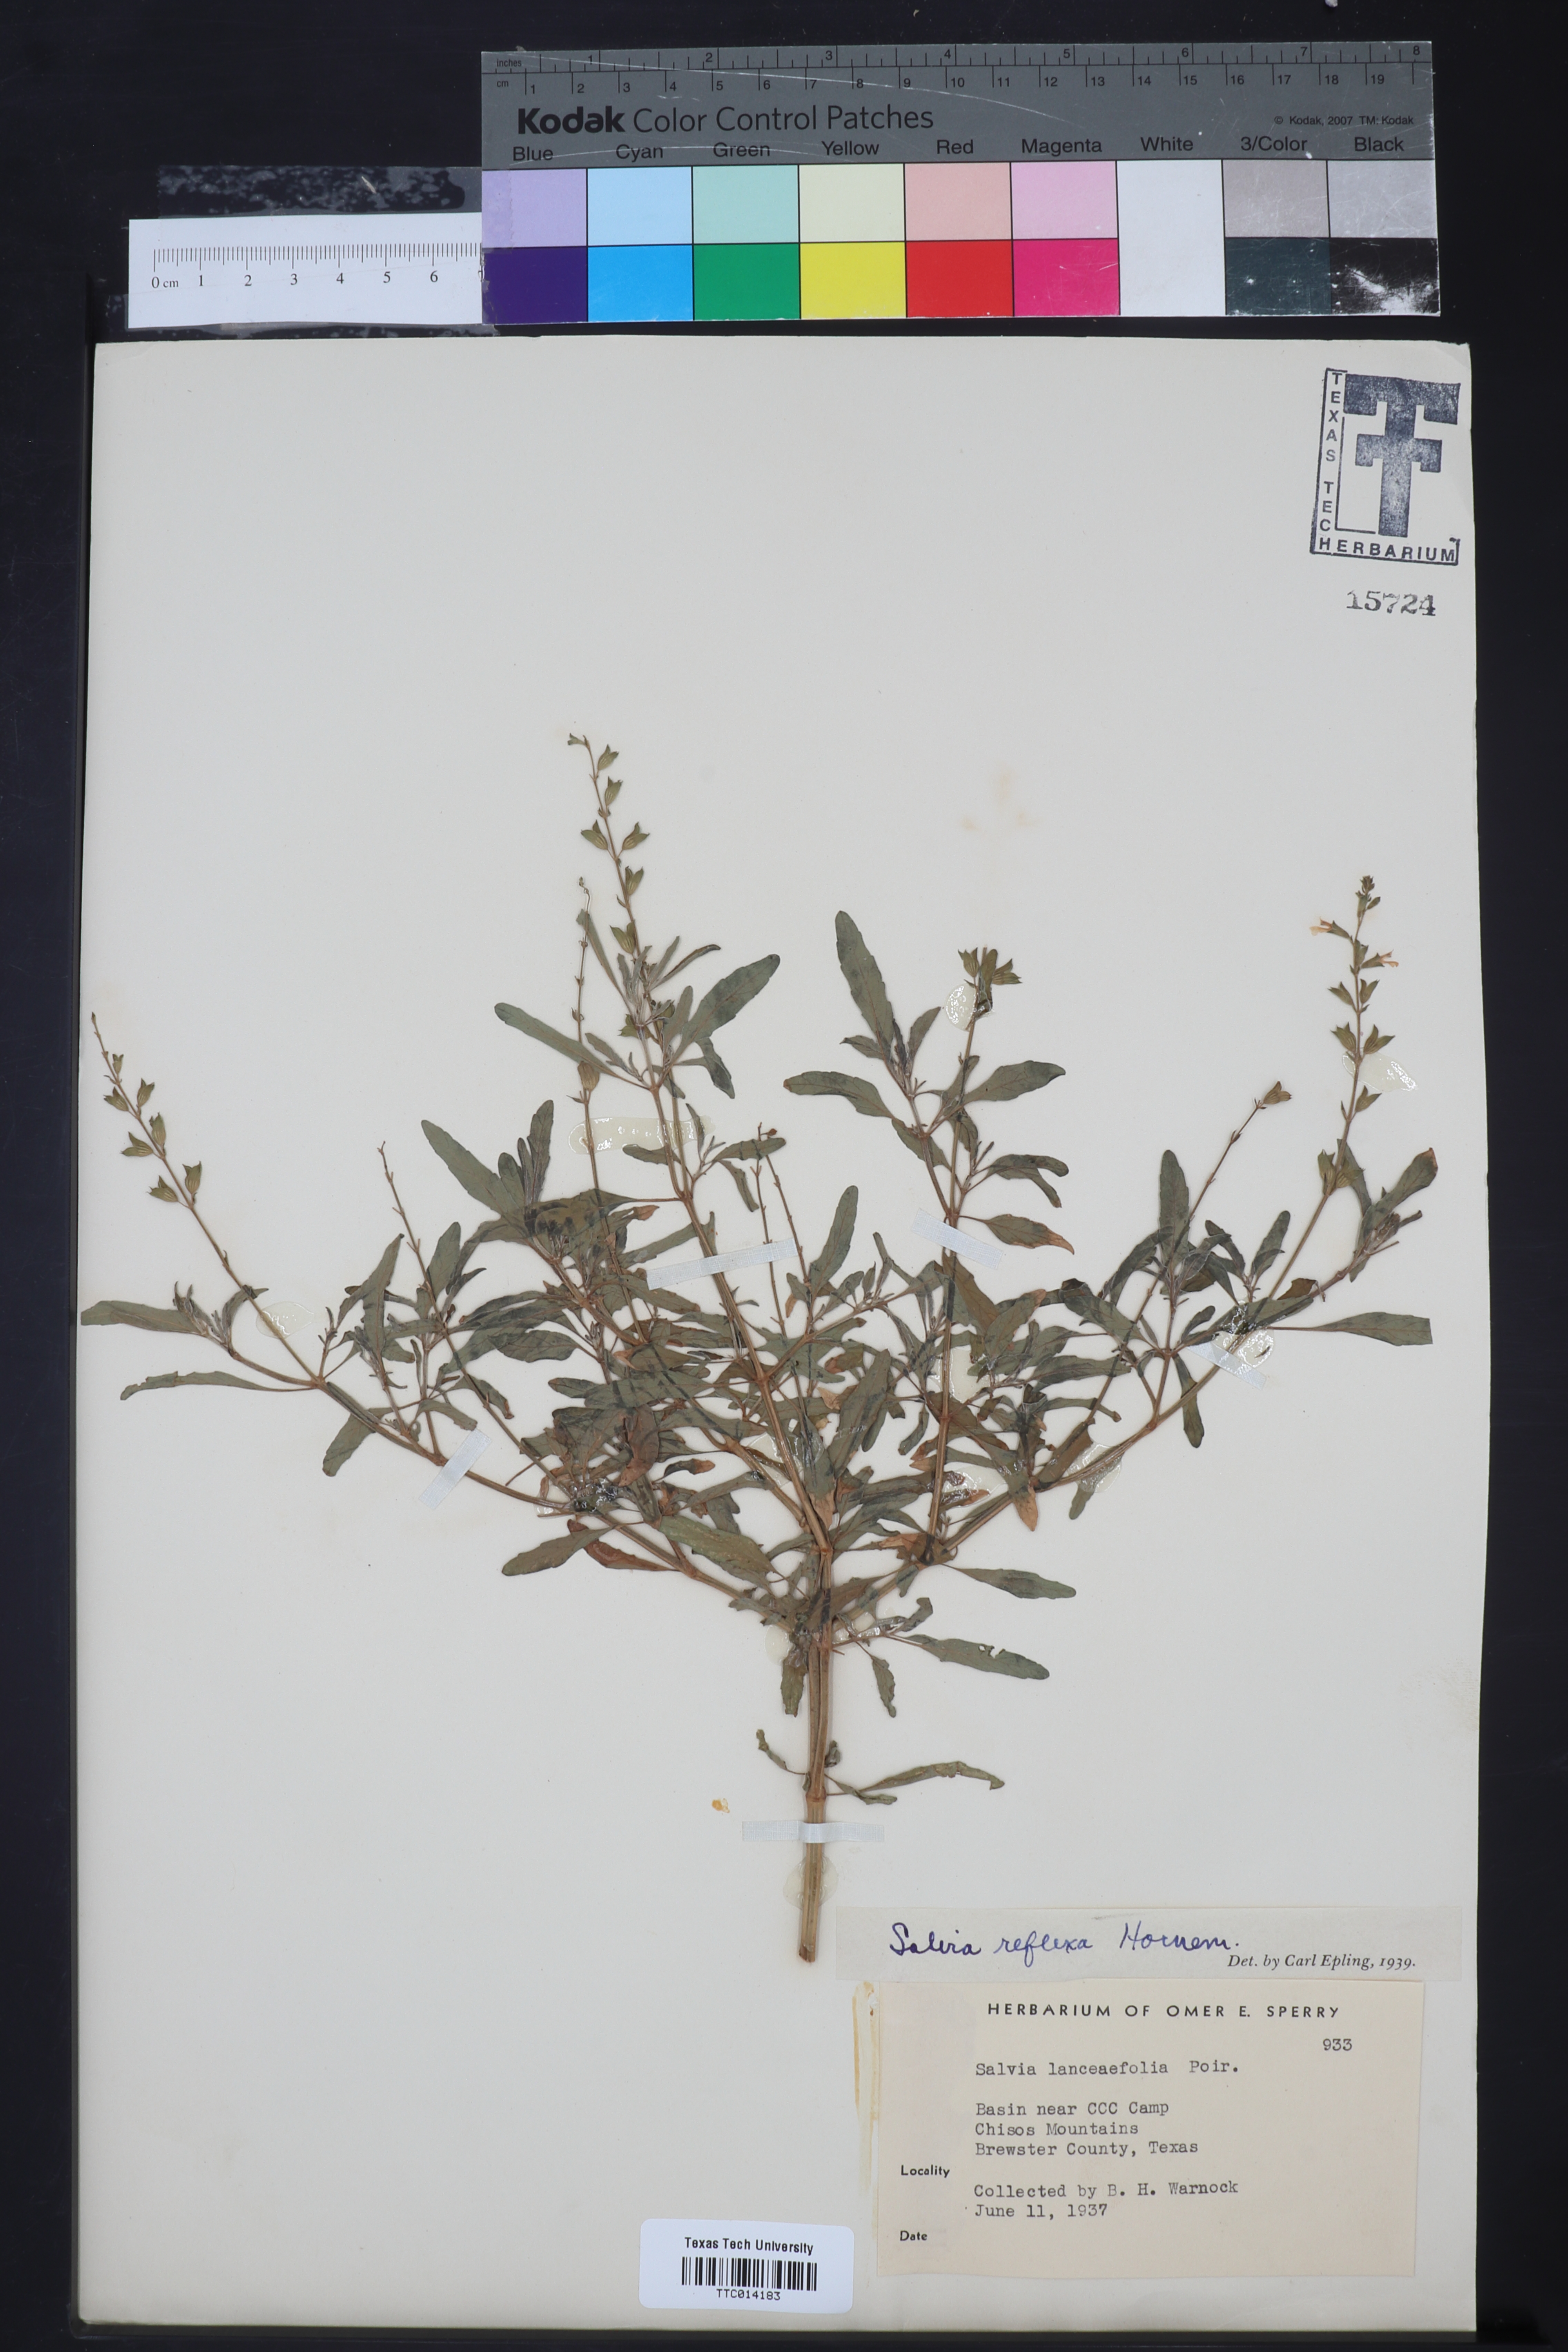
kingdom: Plantae
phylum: Tracheophyta
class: Magnoliopsida
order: Lamiales
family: Lamiaceae
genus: Salvia
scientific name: Salvia reflexa
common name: Mintweed
